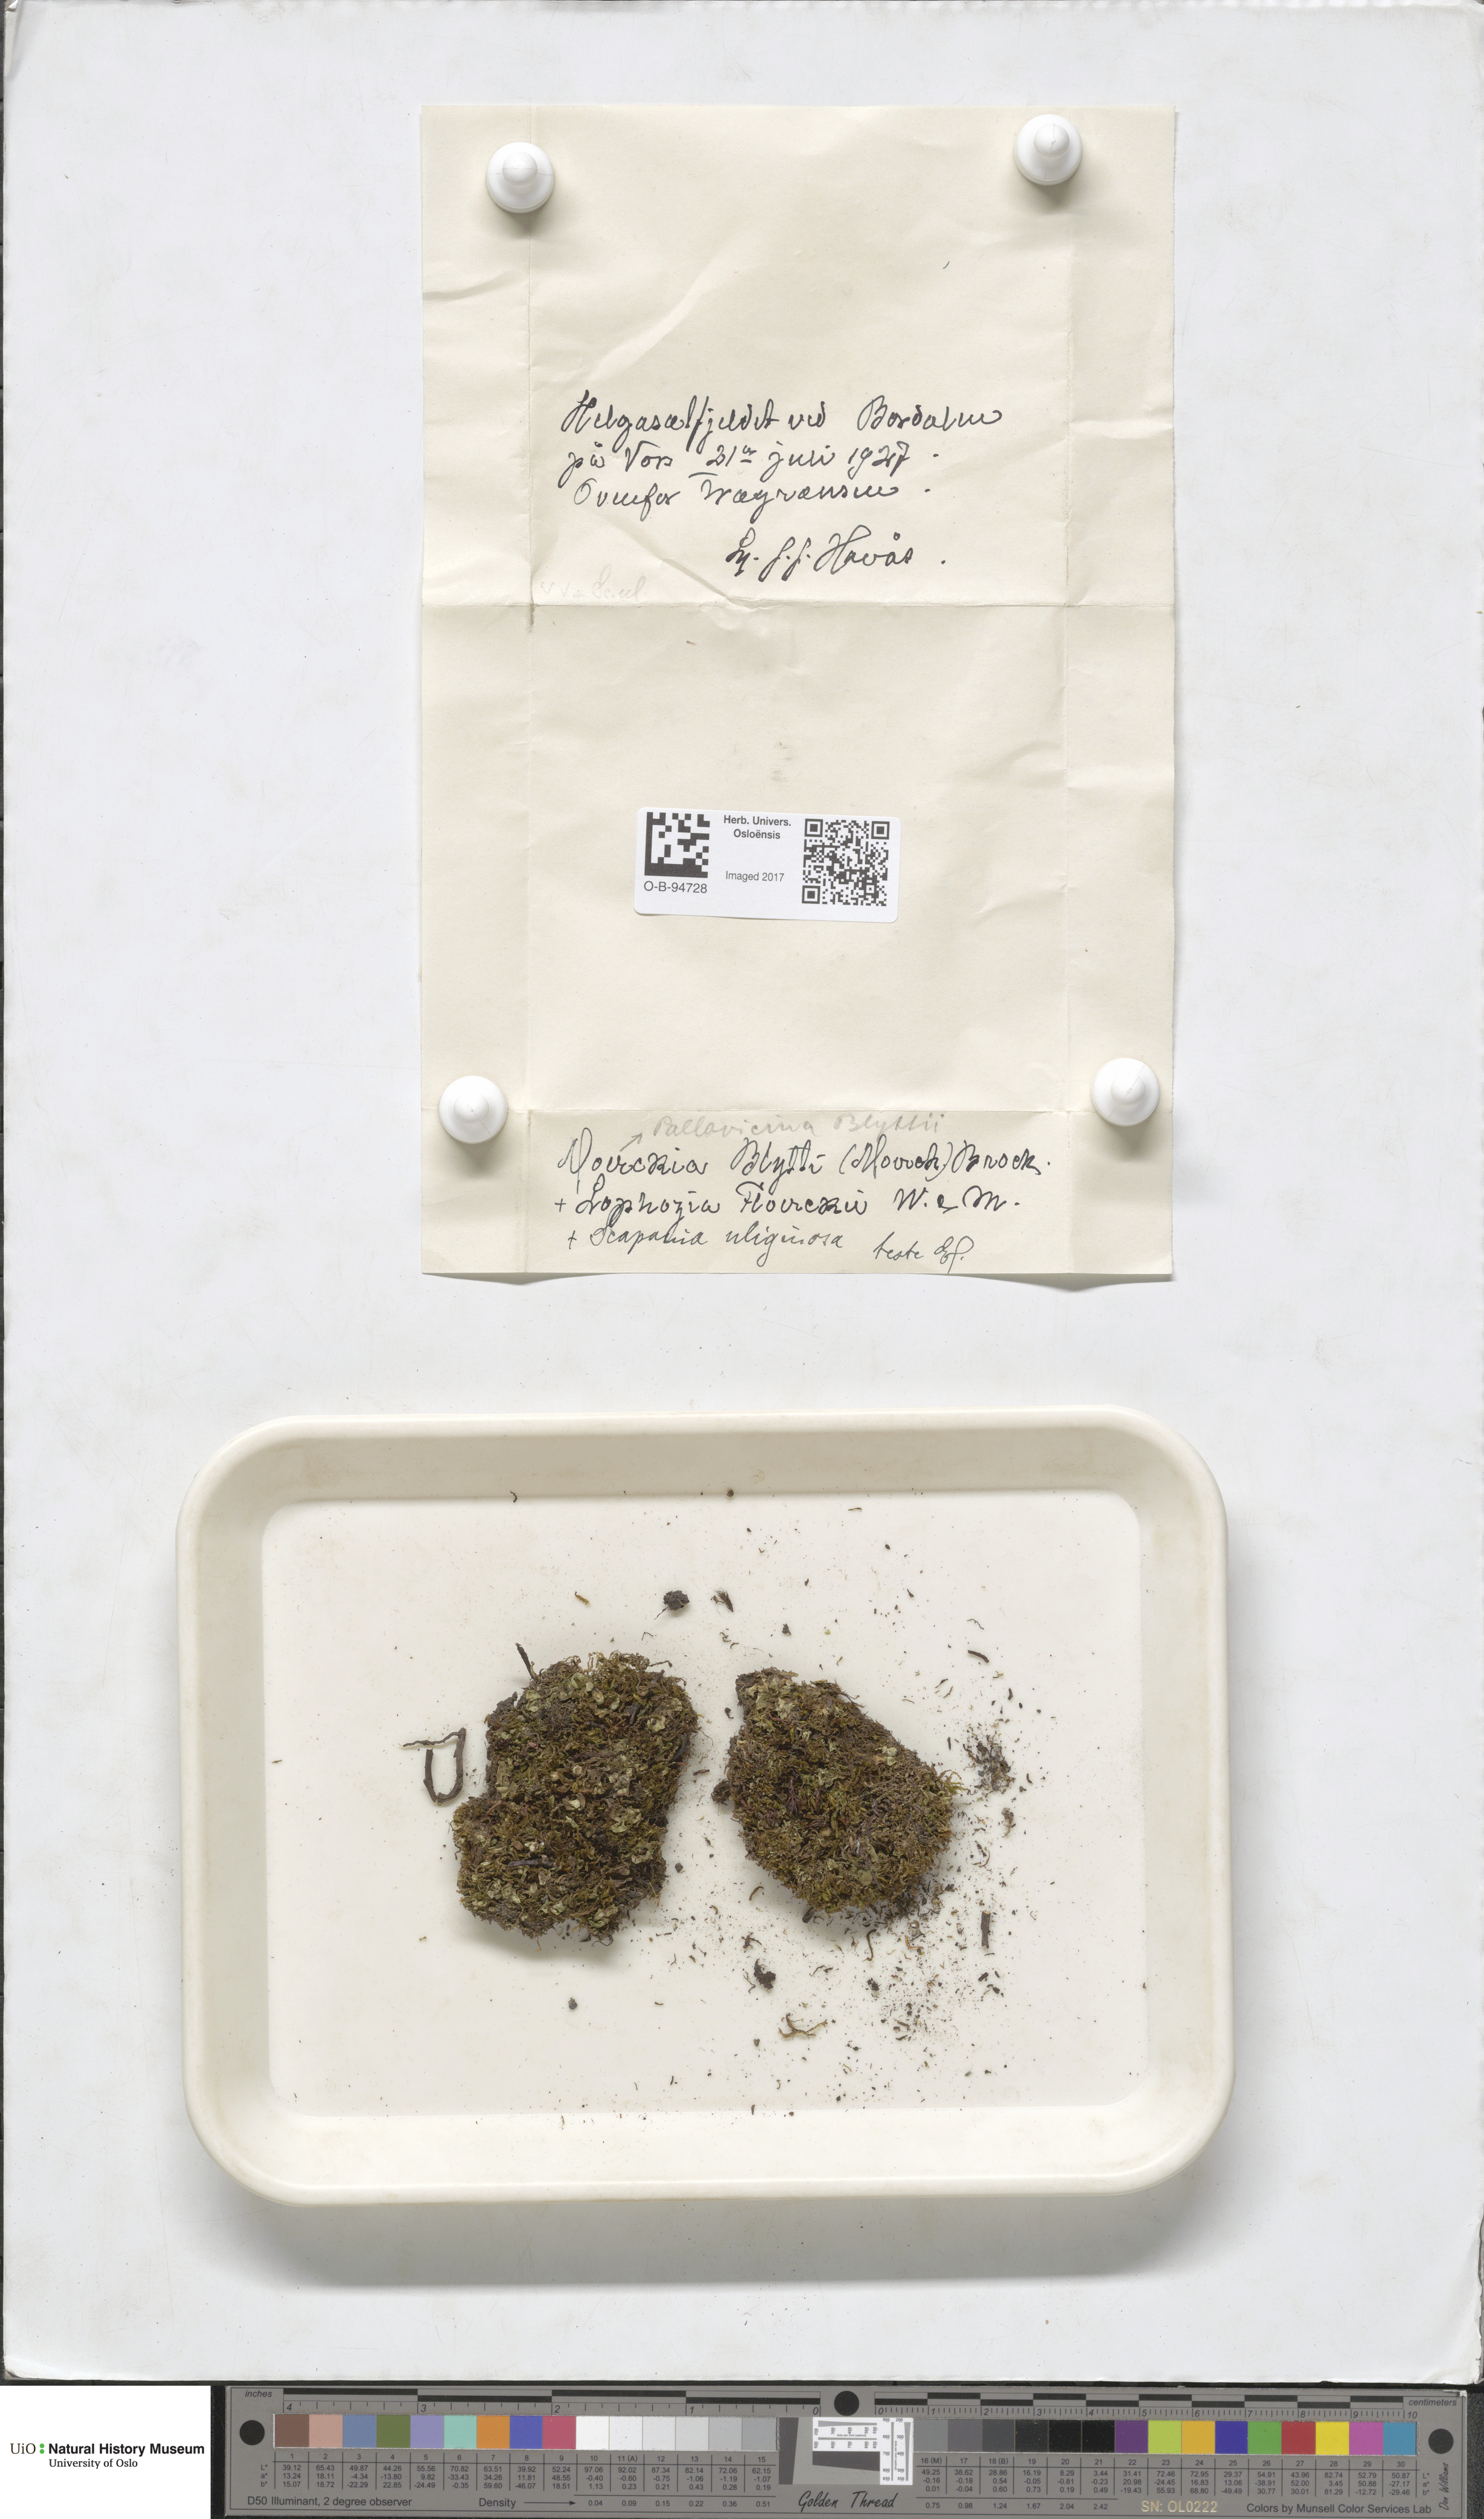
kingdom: Plantae
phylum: Marchantiophyta
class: Jungermanniopsida
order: Pallaviciniales
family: Pseudomoerckiaceae
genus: Pseudomoerckia
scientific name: Pseudomoerckia blyttii
